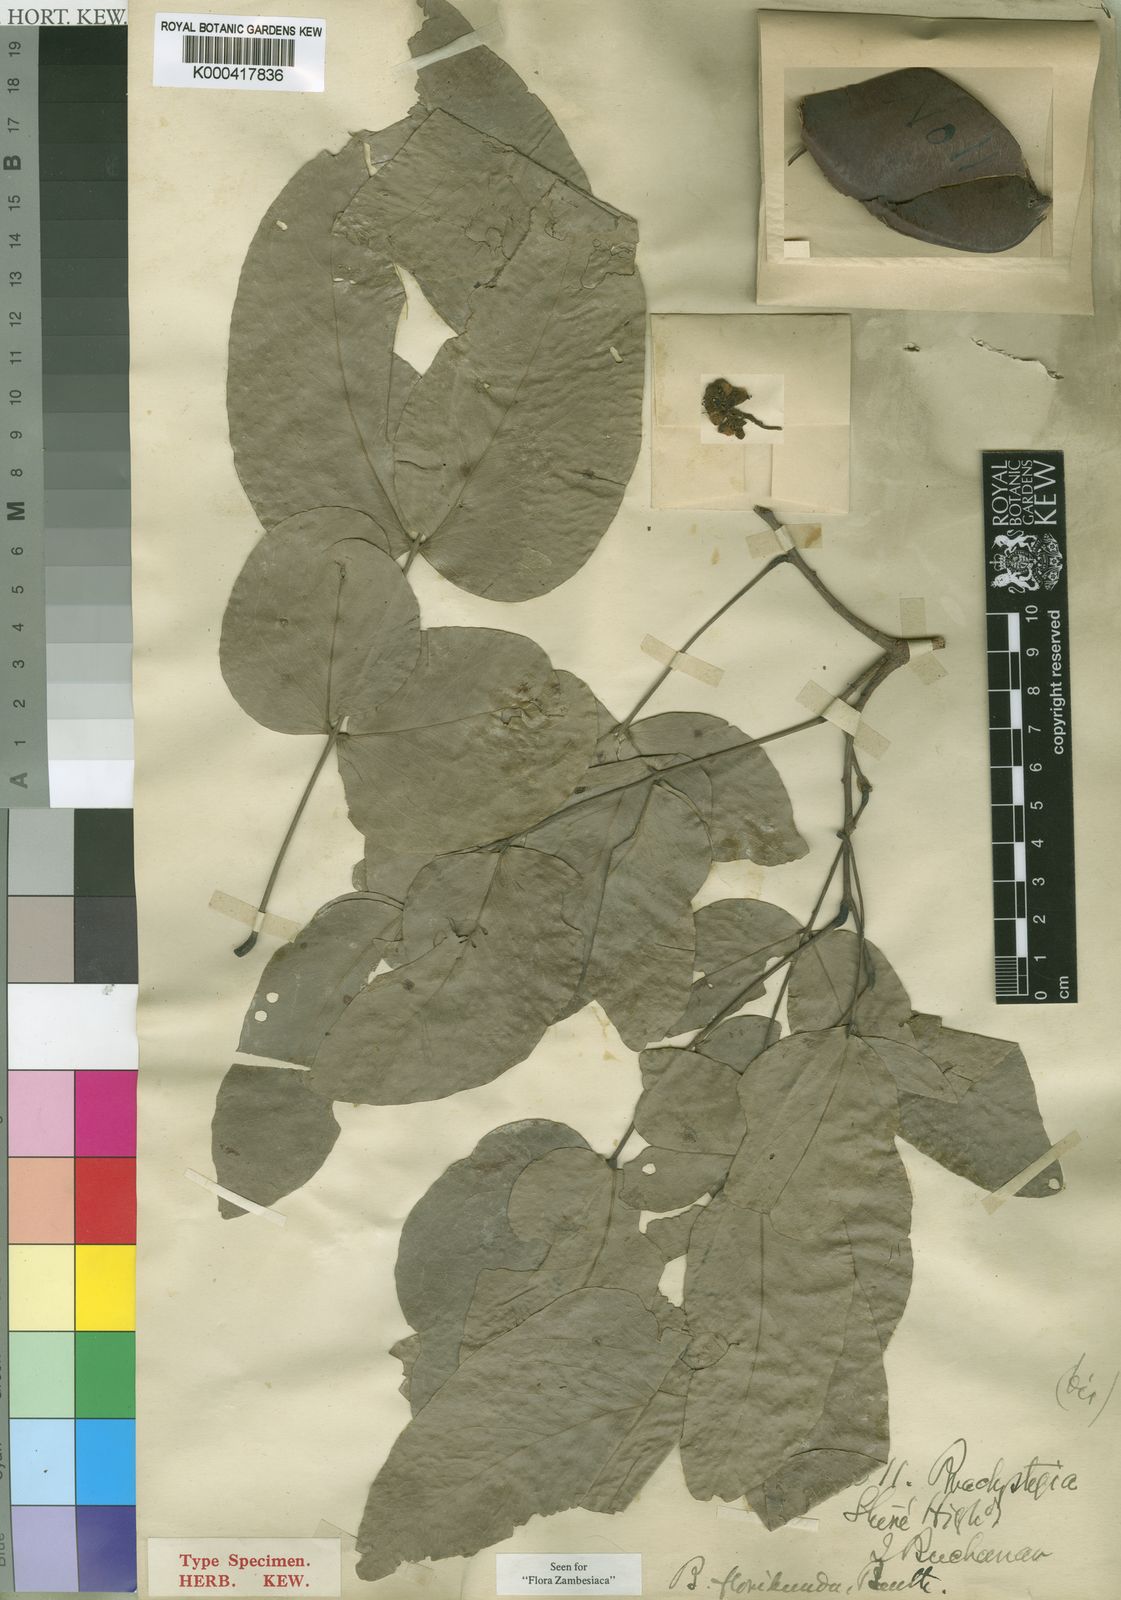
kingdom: Plantae
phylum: Tracheophyta
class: Magnoliopsida
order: Fabales
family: Fabaceae
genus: Brachystegia
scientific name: Brachystegia floribunda
